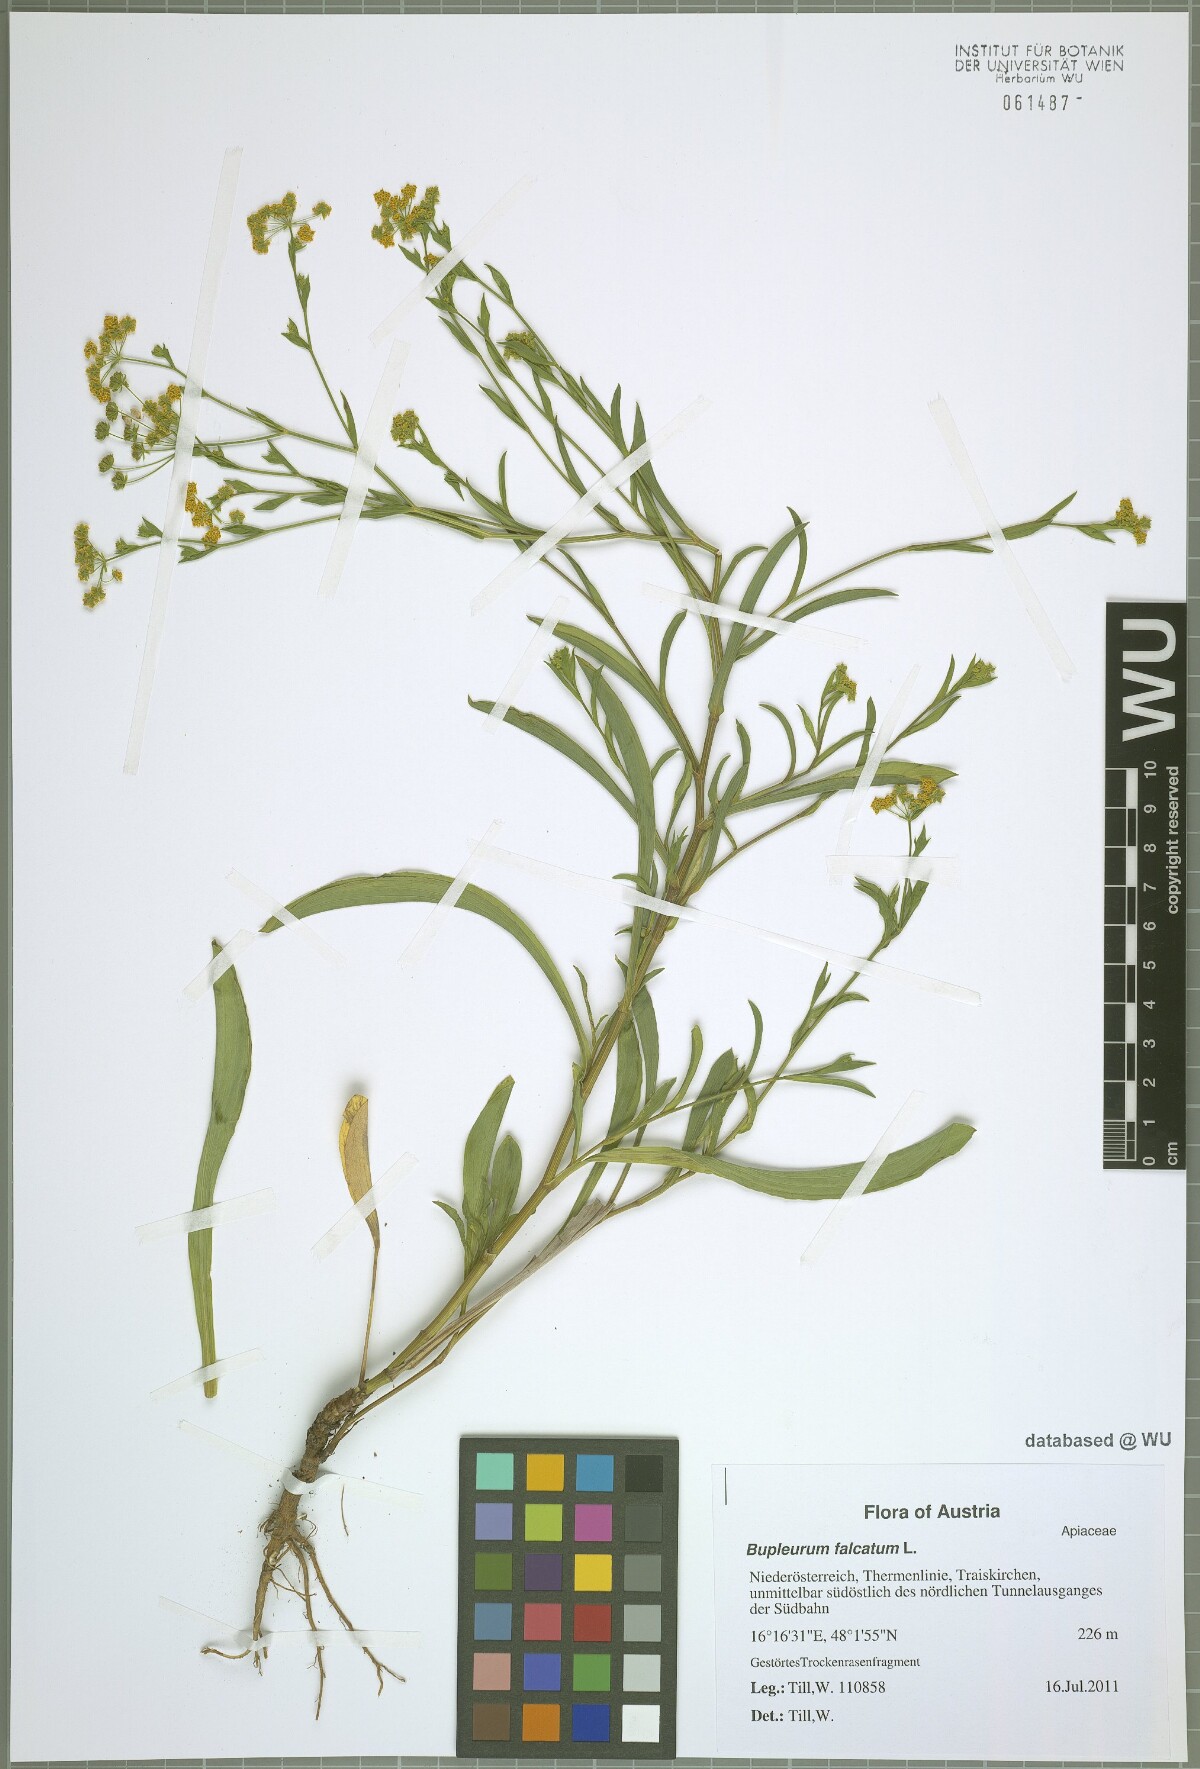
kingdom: Plantae
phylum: Tracheophyta
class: Magnoliopsida
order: Apiales
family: Apiaceae
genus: Bupleurum
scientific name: Bupleurum falcatum
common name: Sickle-leaved hare's-ear
